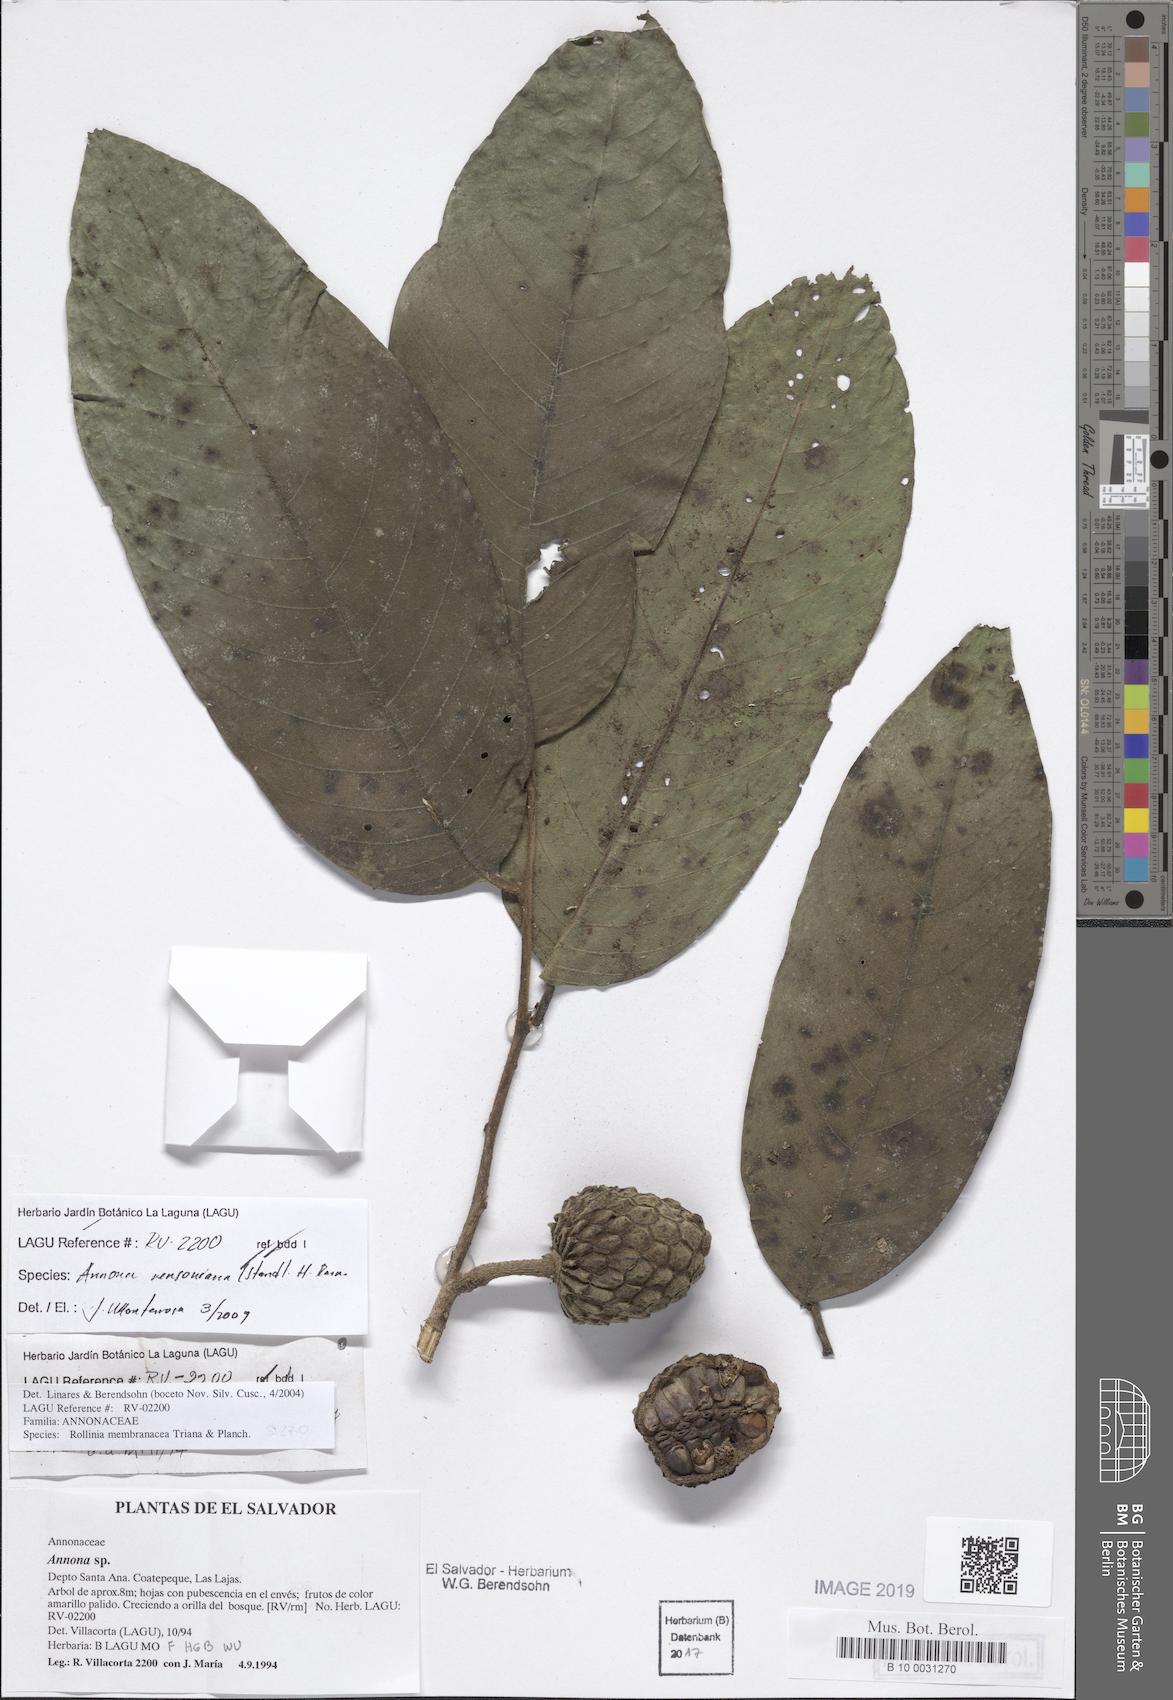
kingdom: Plantae
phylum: Tracheophyta
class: Magnoliopsida
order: Magnoliales
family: Annonaceae
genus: Annona
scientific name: Annona rensoniana
